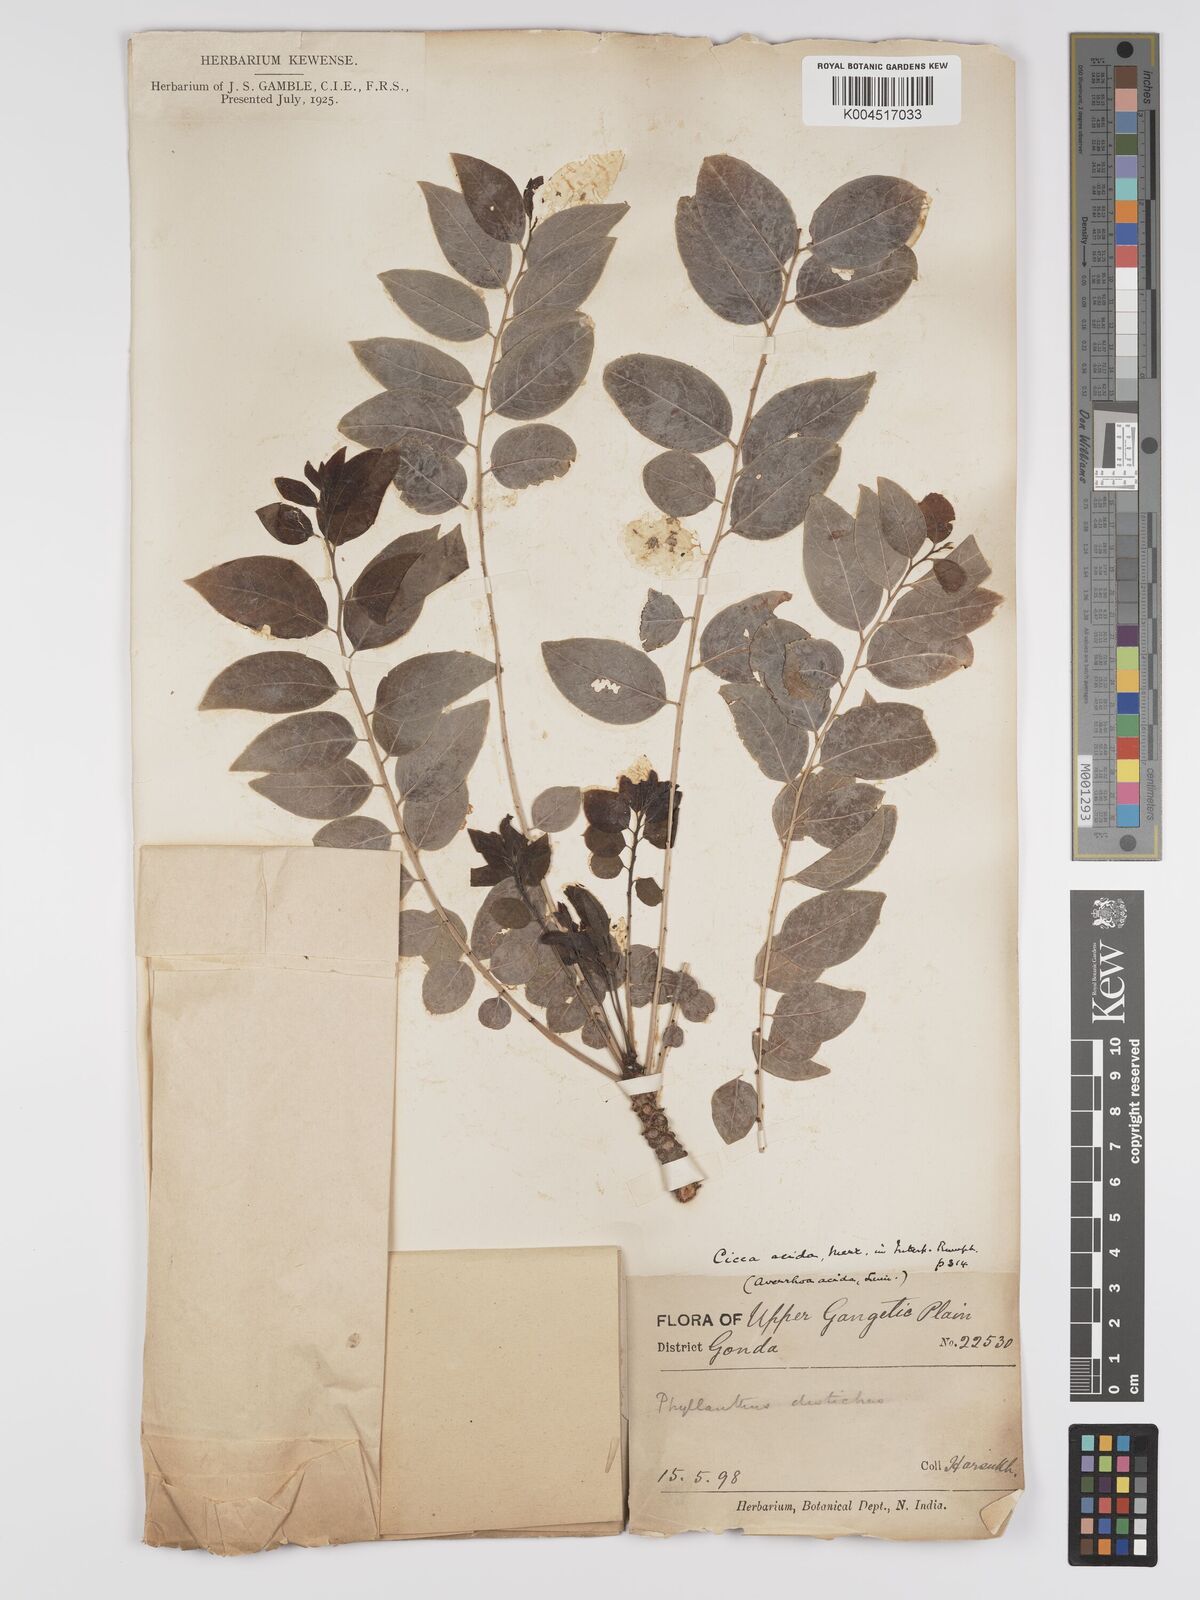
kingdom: Plantae
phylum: Tracheophyta
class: Magnoliopsida
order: Malpighiales
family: Phyllanthaceae
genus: Phyllanthus
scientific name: Phyllanthus acidus
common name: Tahitian gooseberry tree
